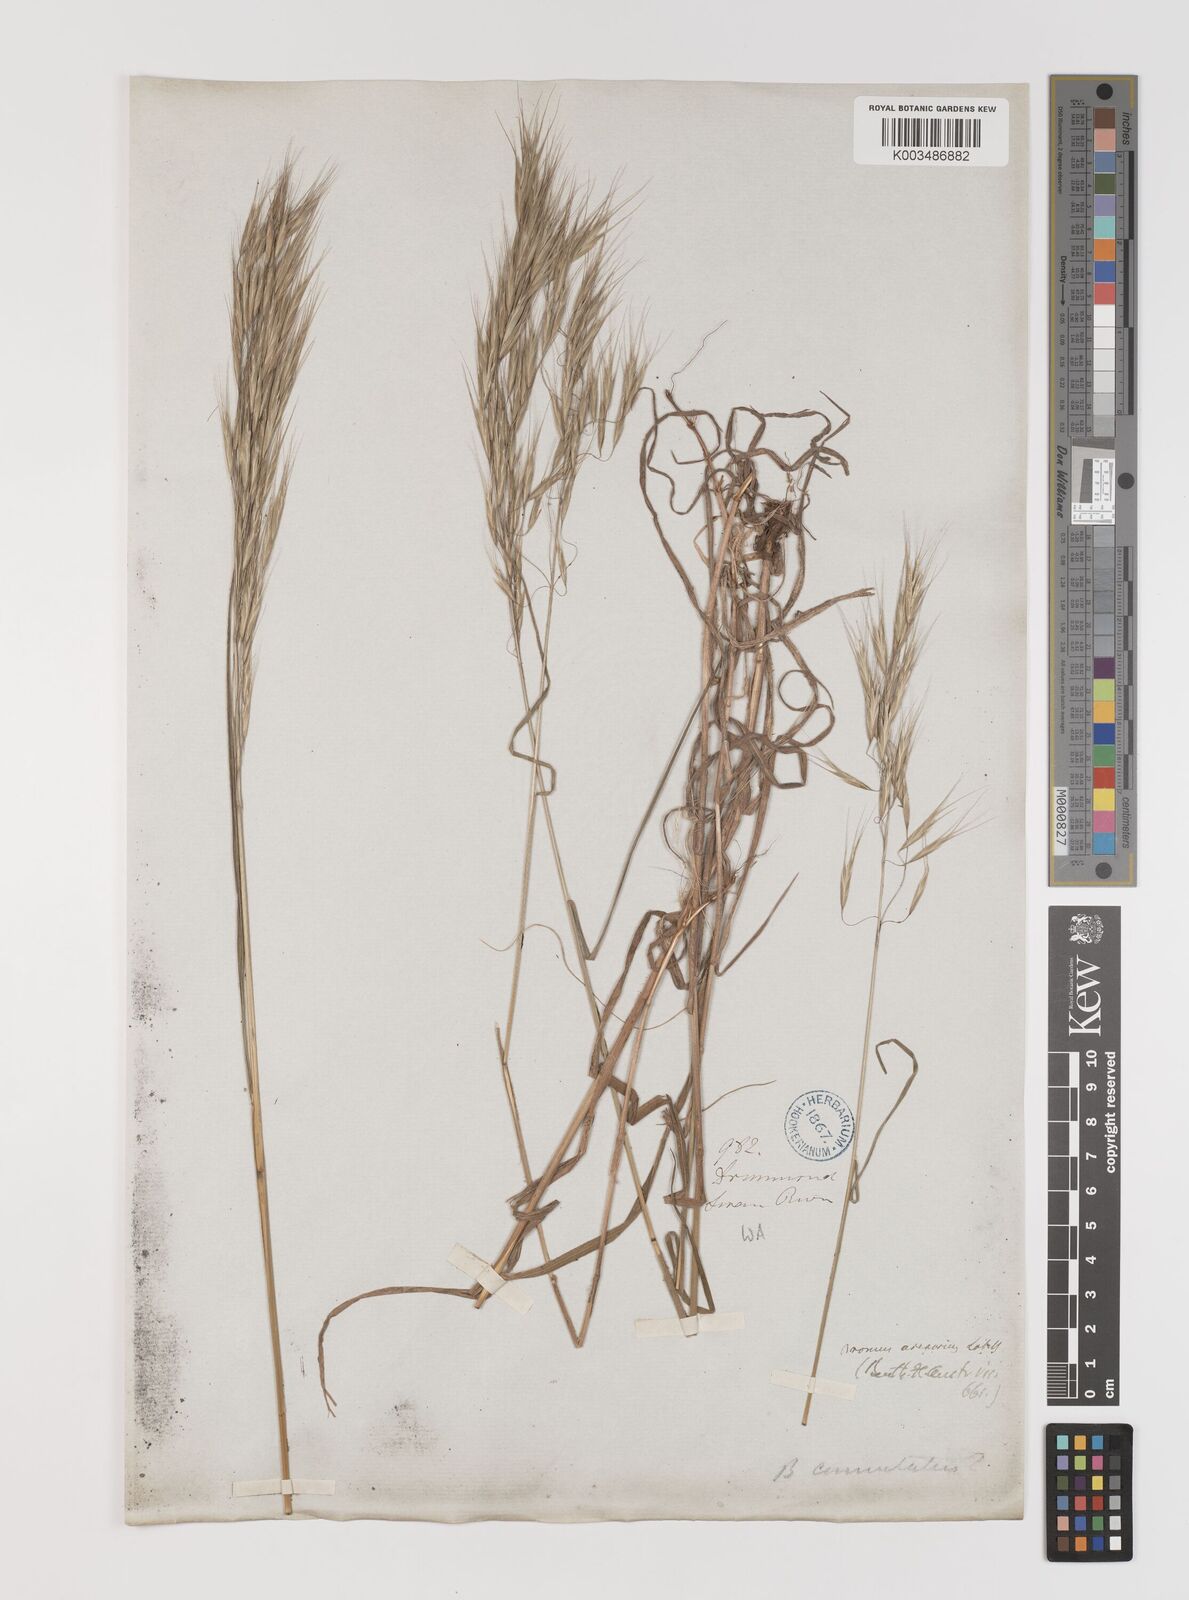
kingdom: Plantae
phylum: Tracheophyta
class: Liliopsida
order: Poales
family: Poaceae
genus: Bromus
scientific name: Bromus arenarius
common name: Australian brome
